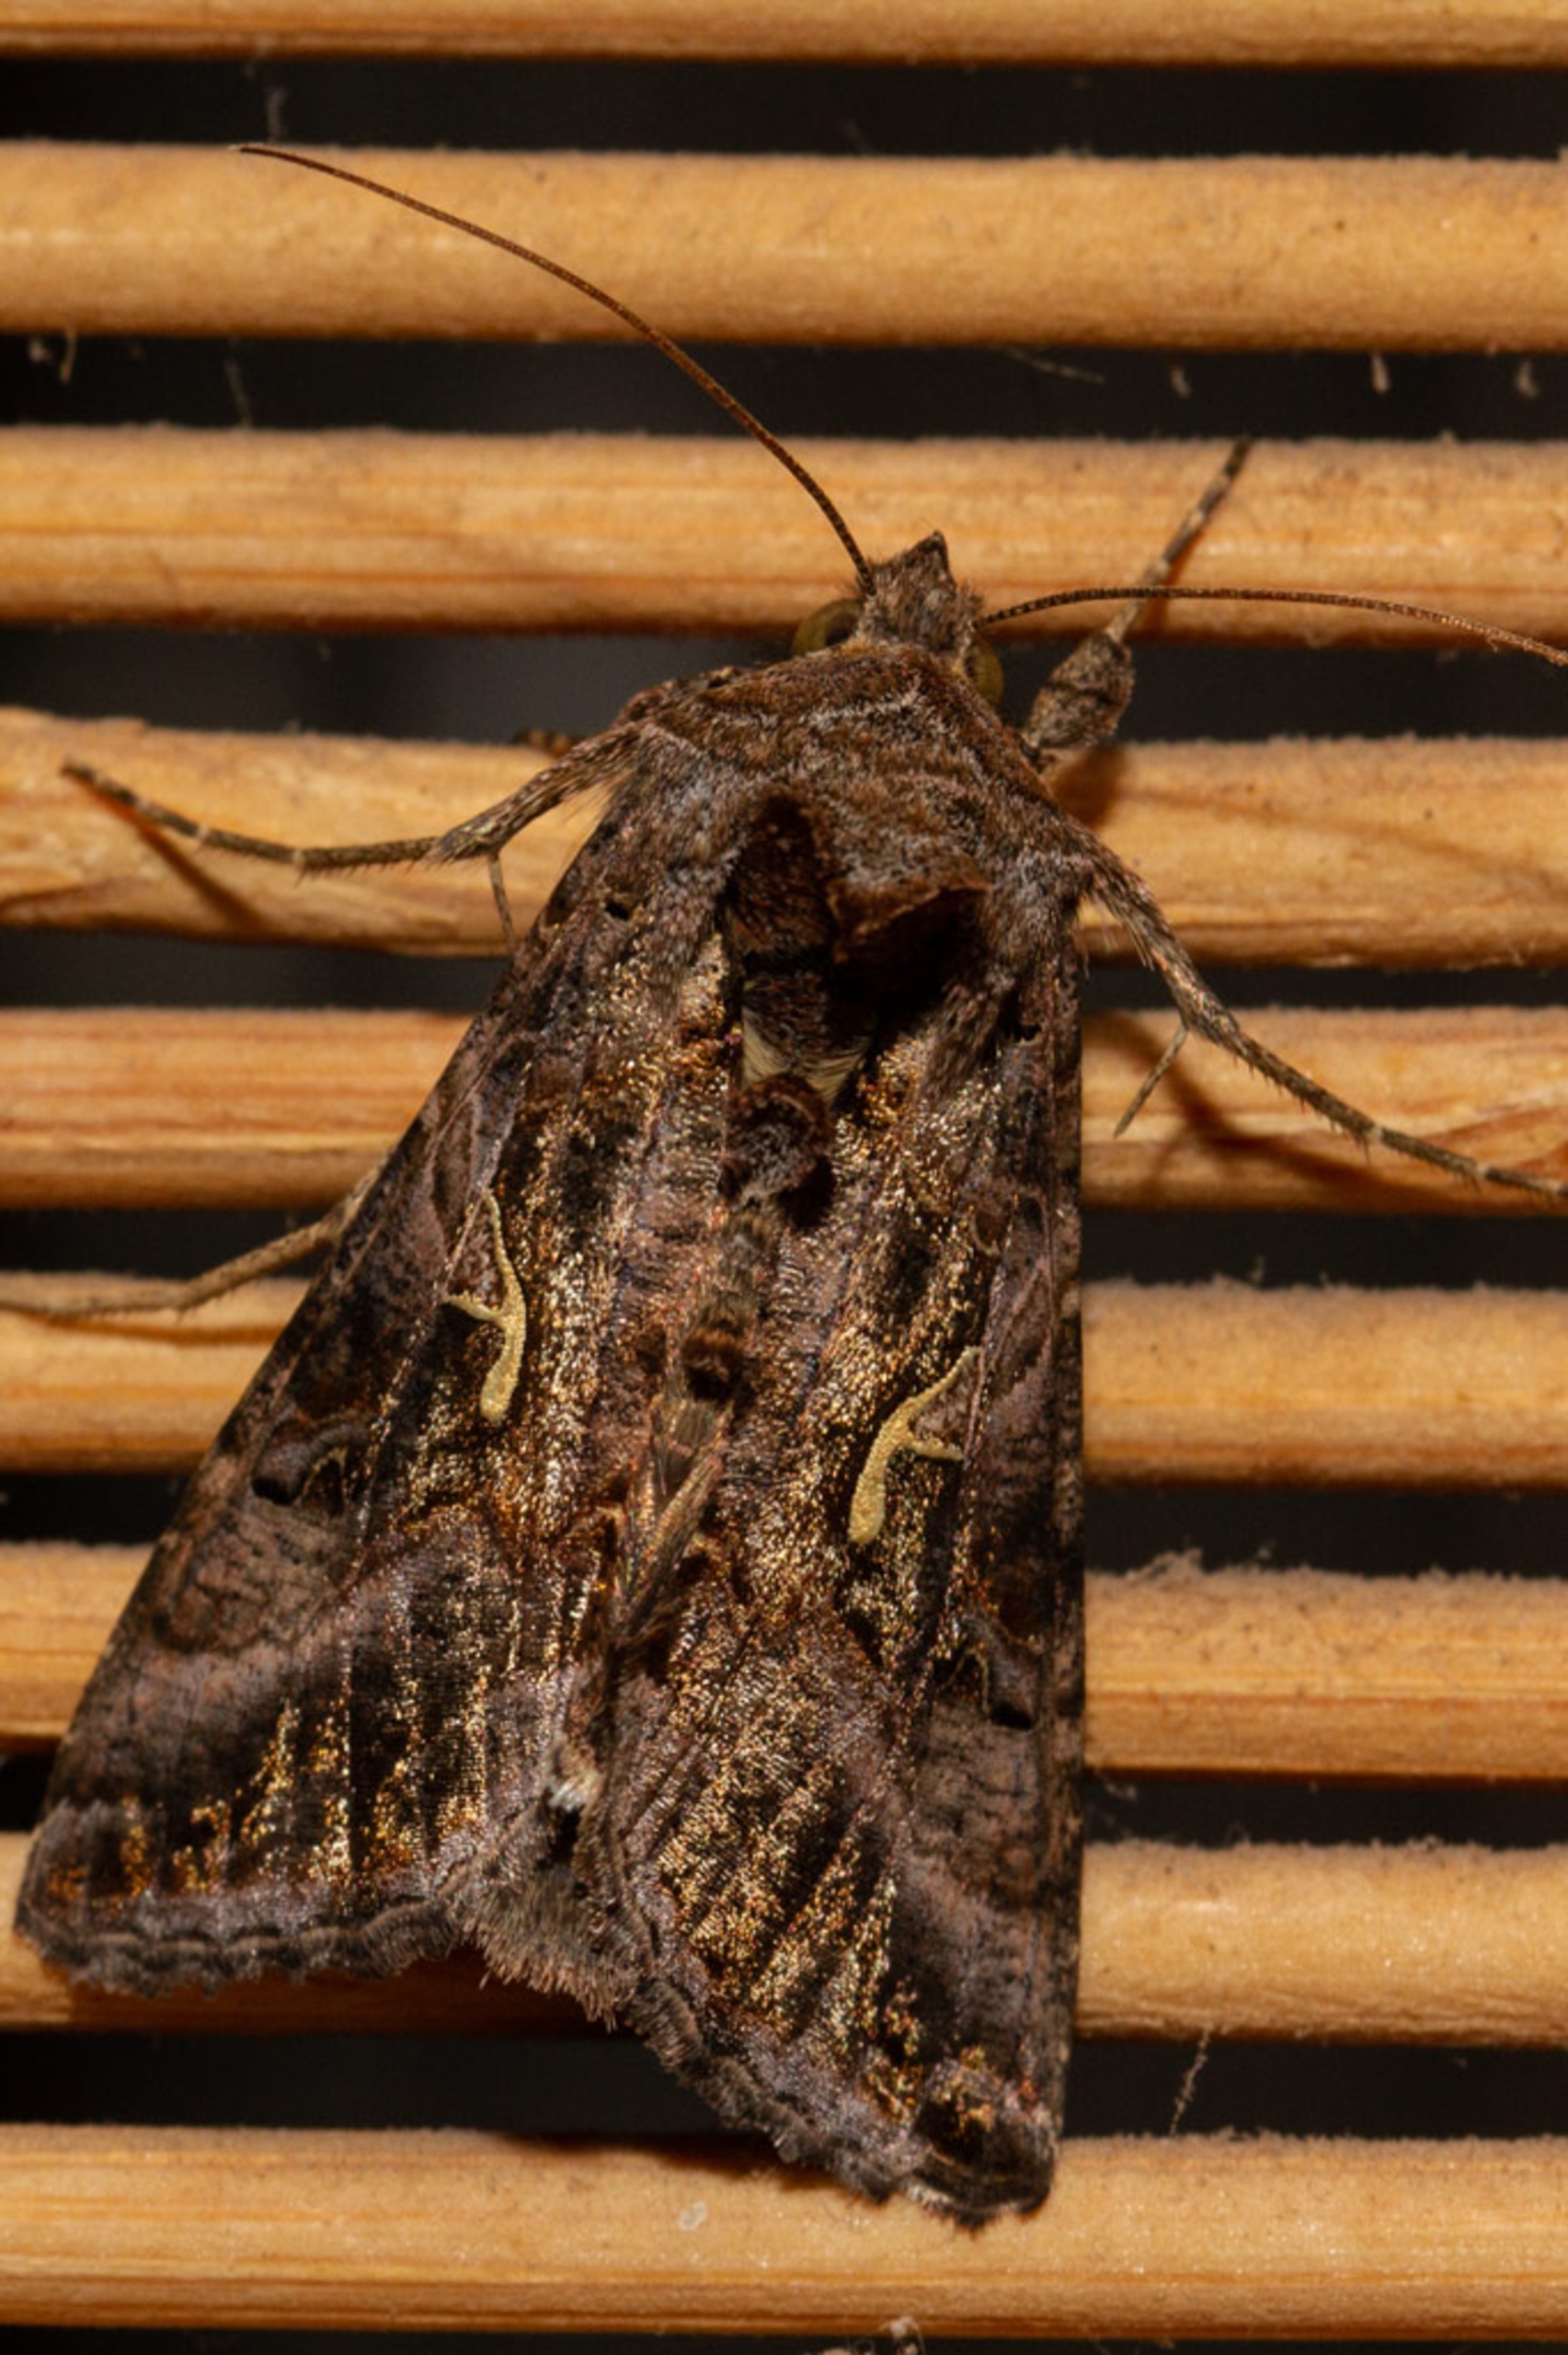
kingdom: Animalia
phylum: Arthropoda
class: Insecta
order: Lepidoptera
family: Noctuidae
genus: Autographa
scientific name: Autographa gamma
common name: Gammaugle
